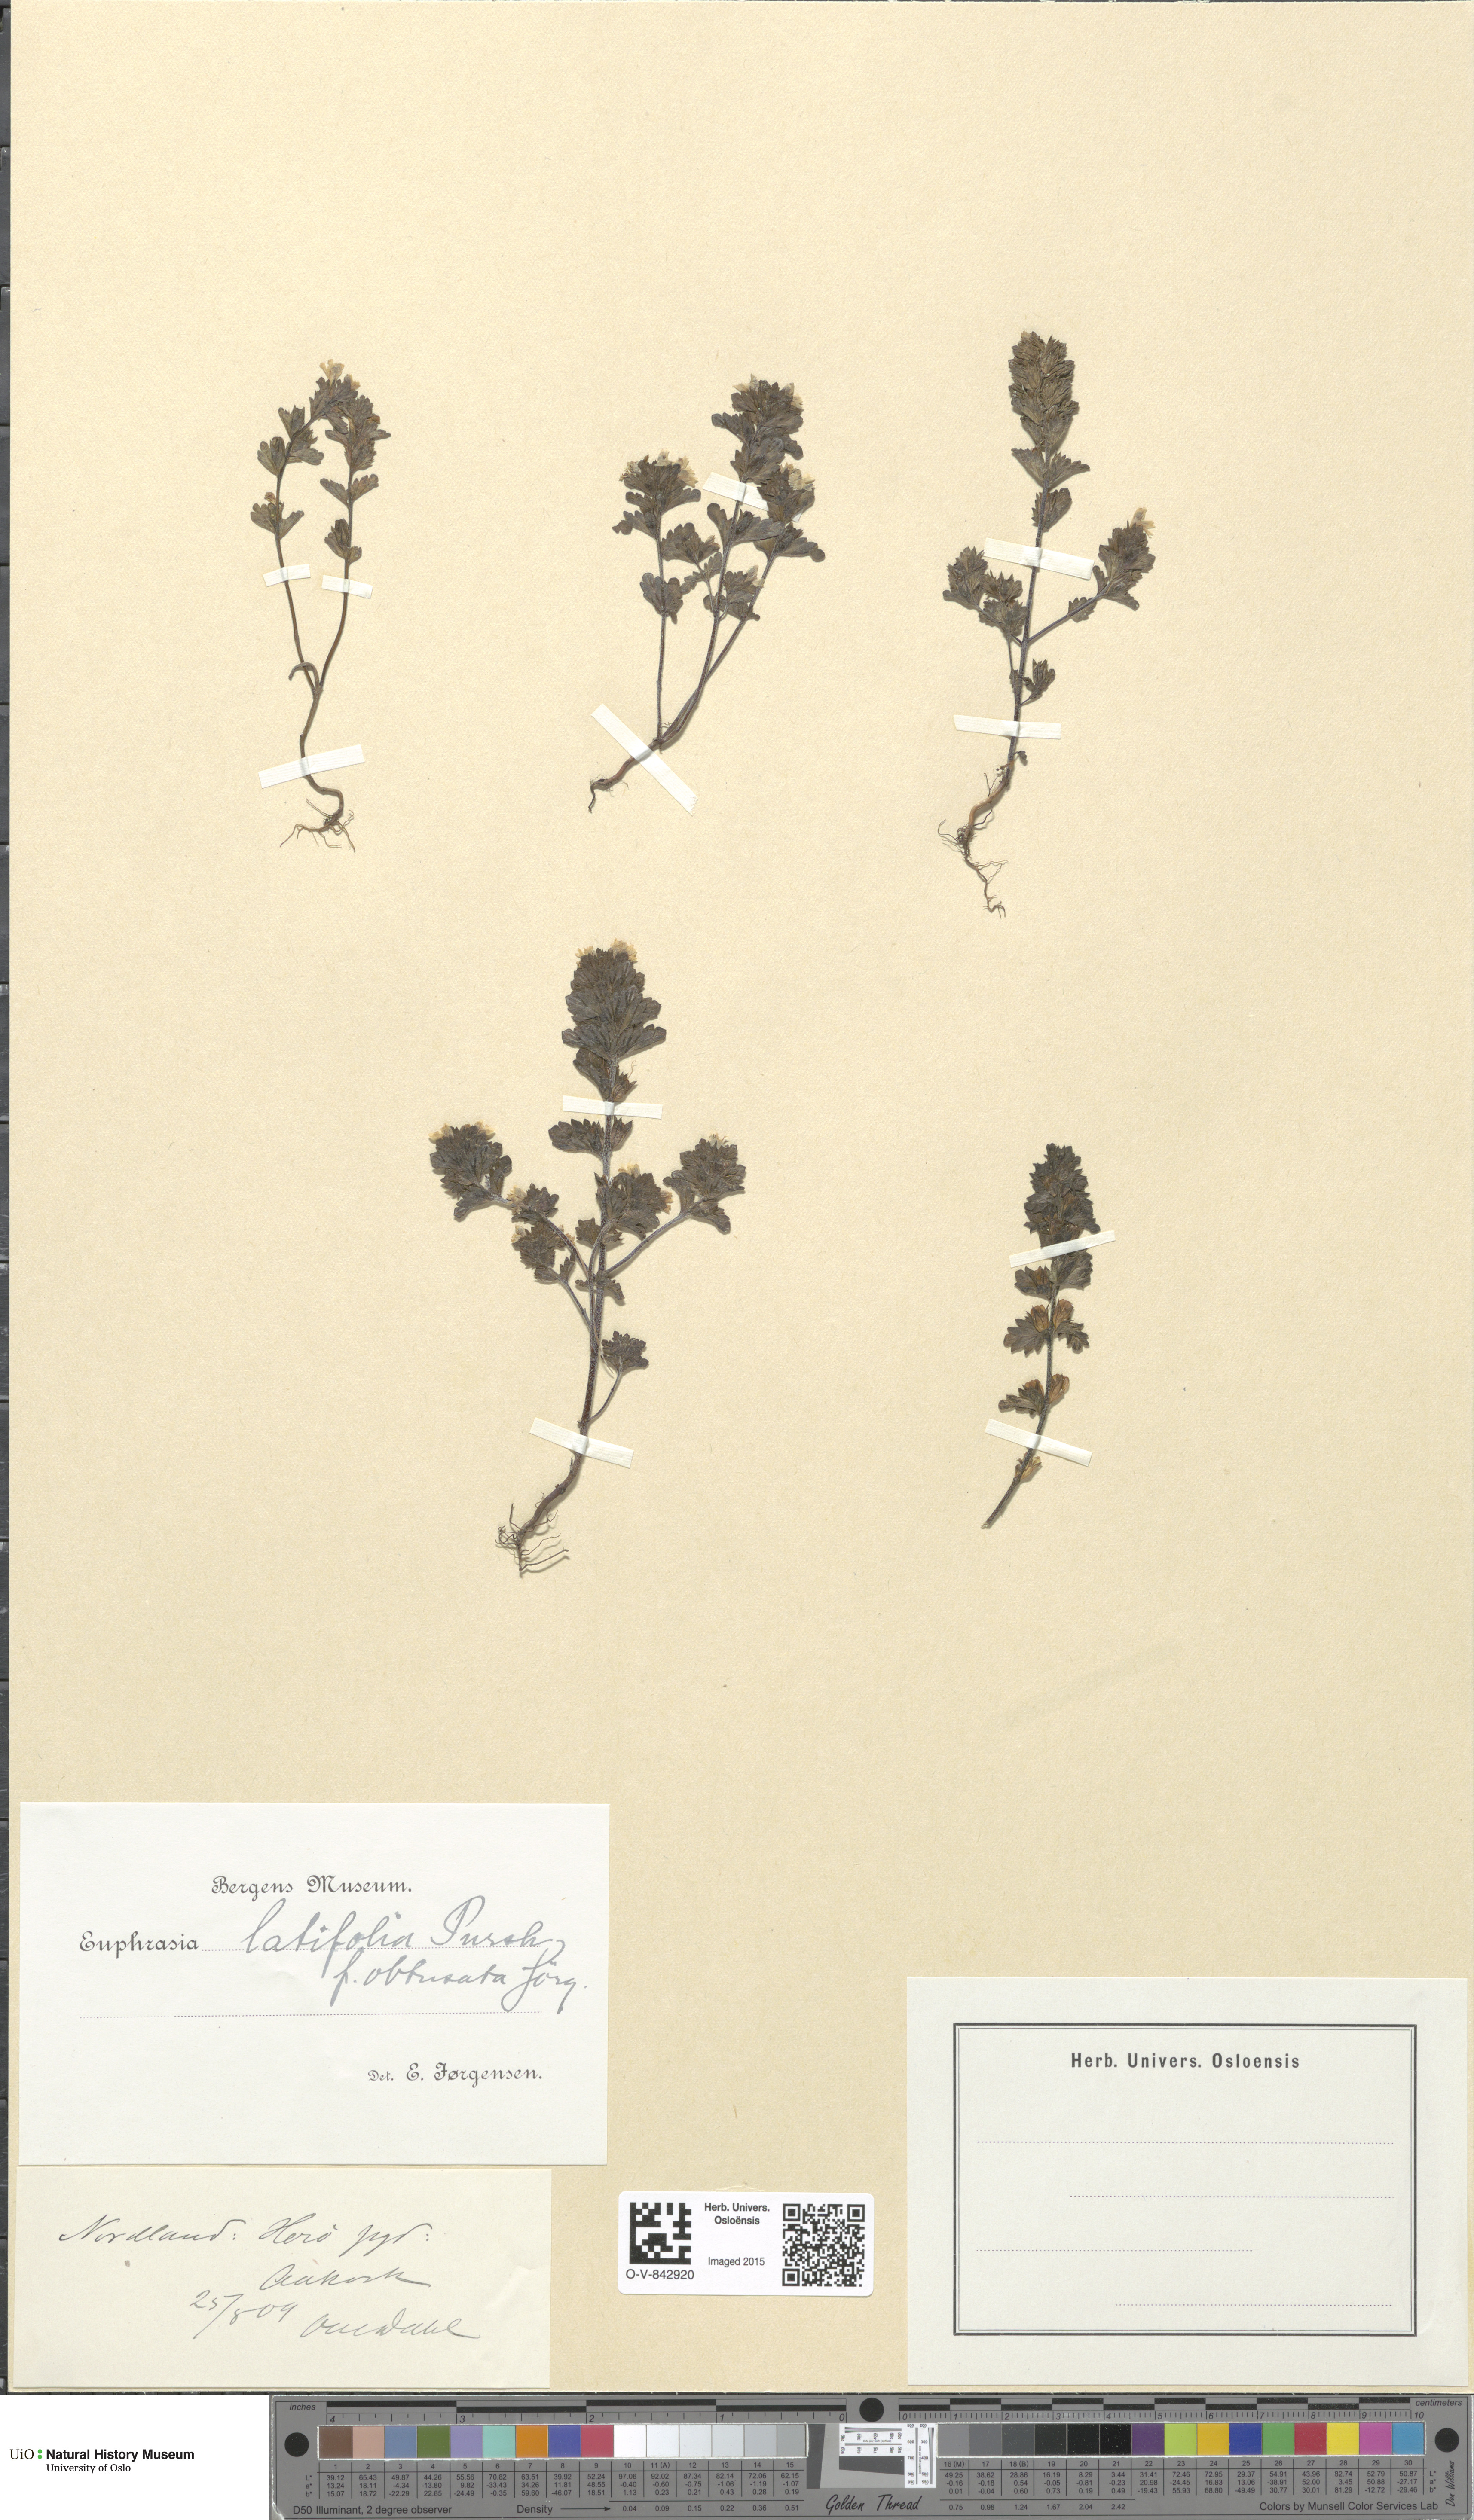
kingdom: Plantae
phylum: Tracheophyta
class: Magnoliopsida
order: Lamiales
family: Orobanchaceae
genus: Euphrasia
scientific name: Euphrasia wettsteinii
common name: Wettstein's eyebright
